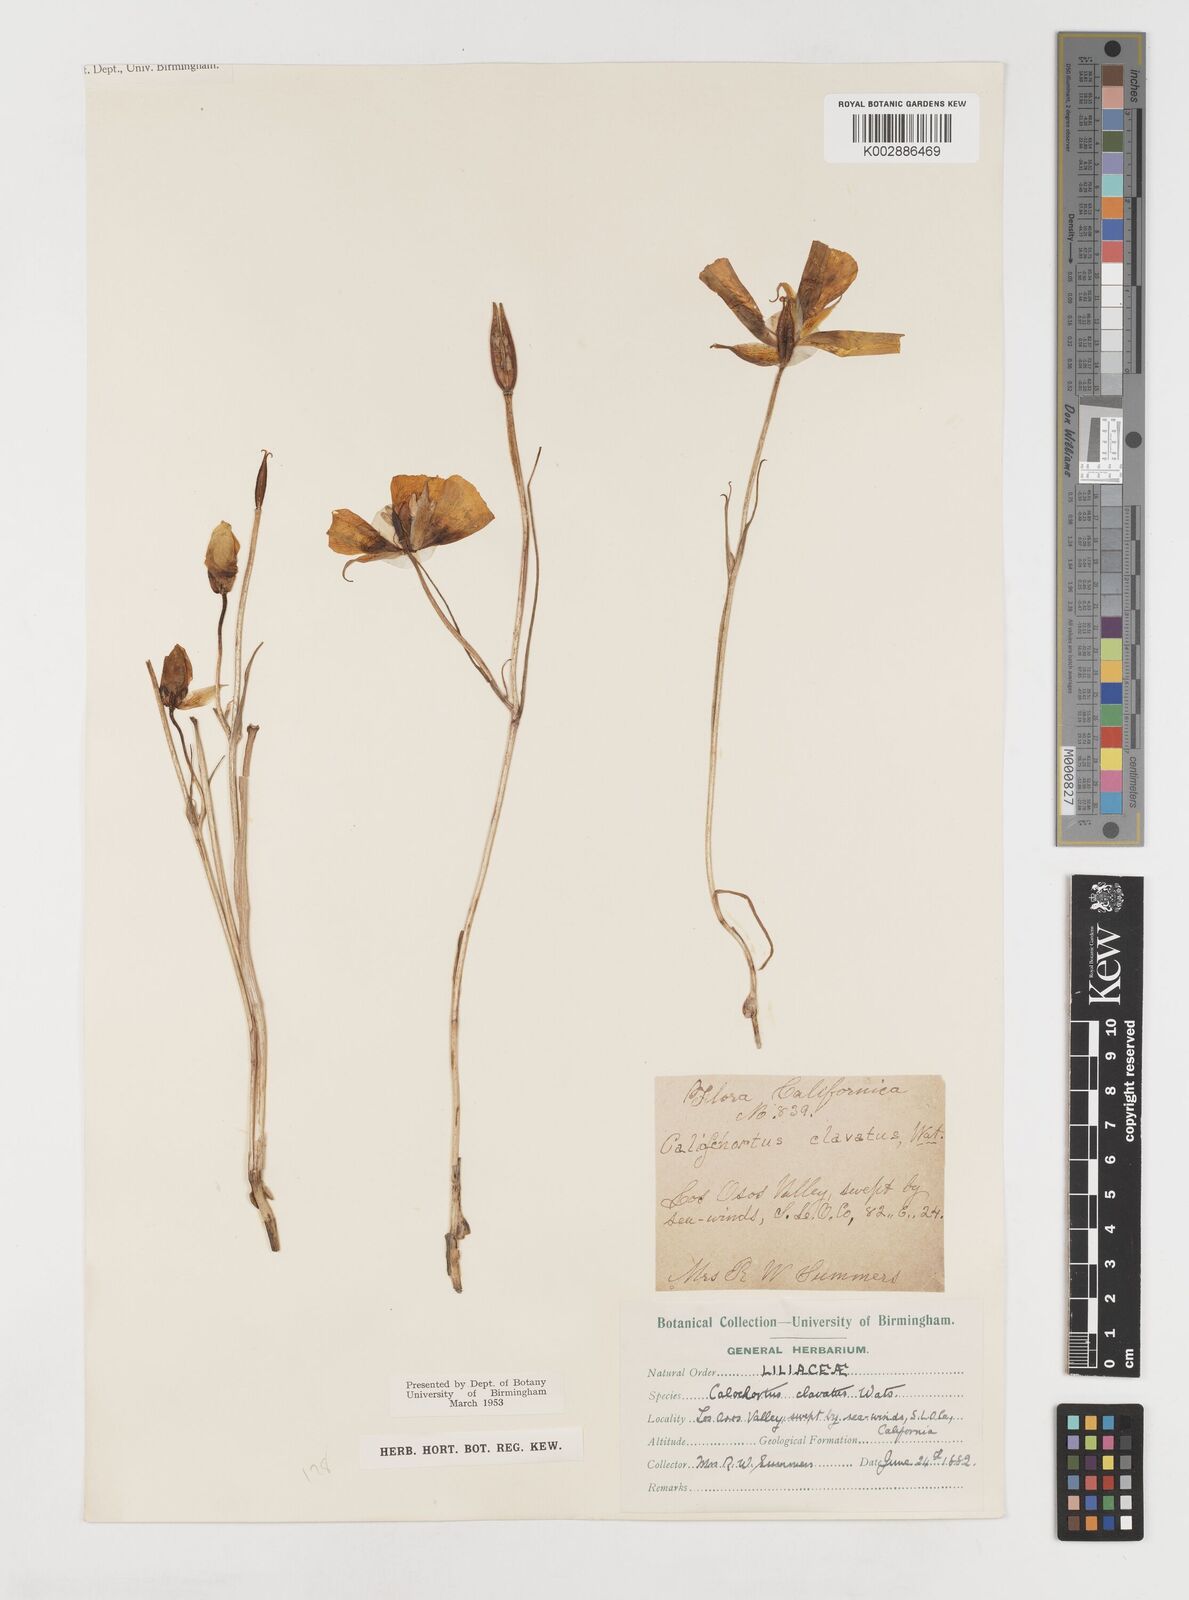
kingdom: Plantae
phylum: Tracheophyta
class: Liliopsida
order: Liliales
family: Liliaceae
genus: Calochortus
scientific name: Calochortus clavatus
